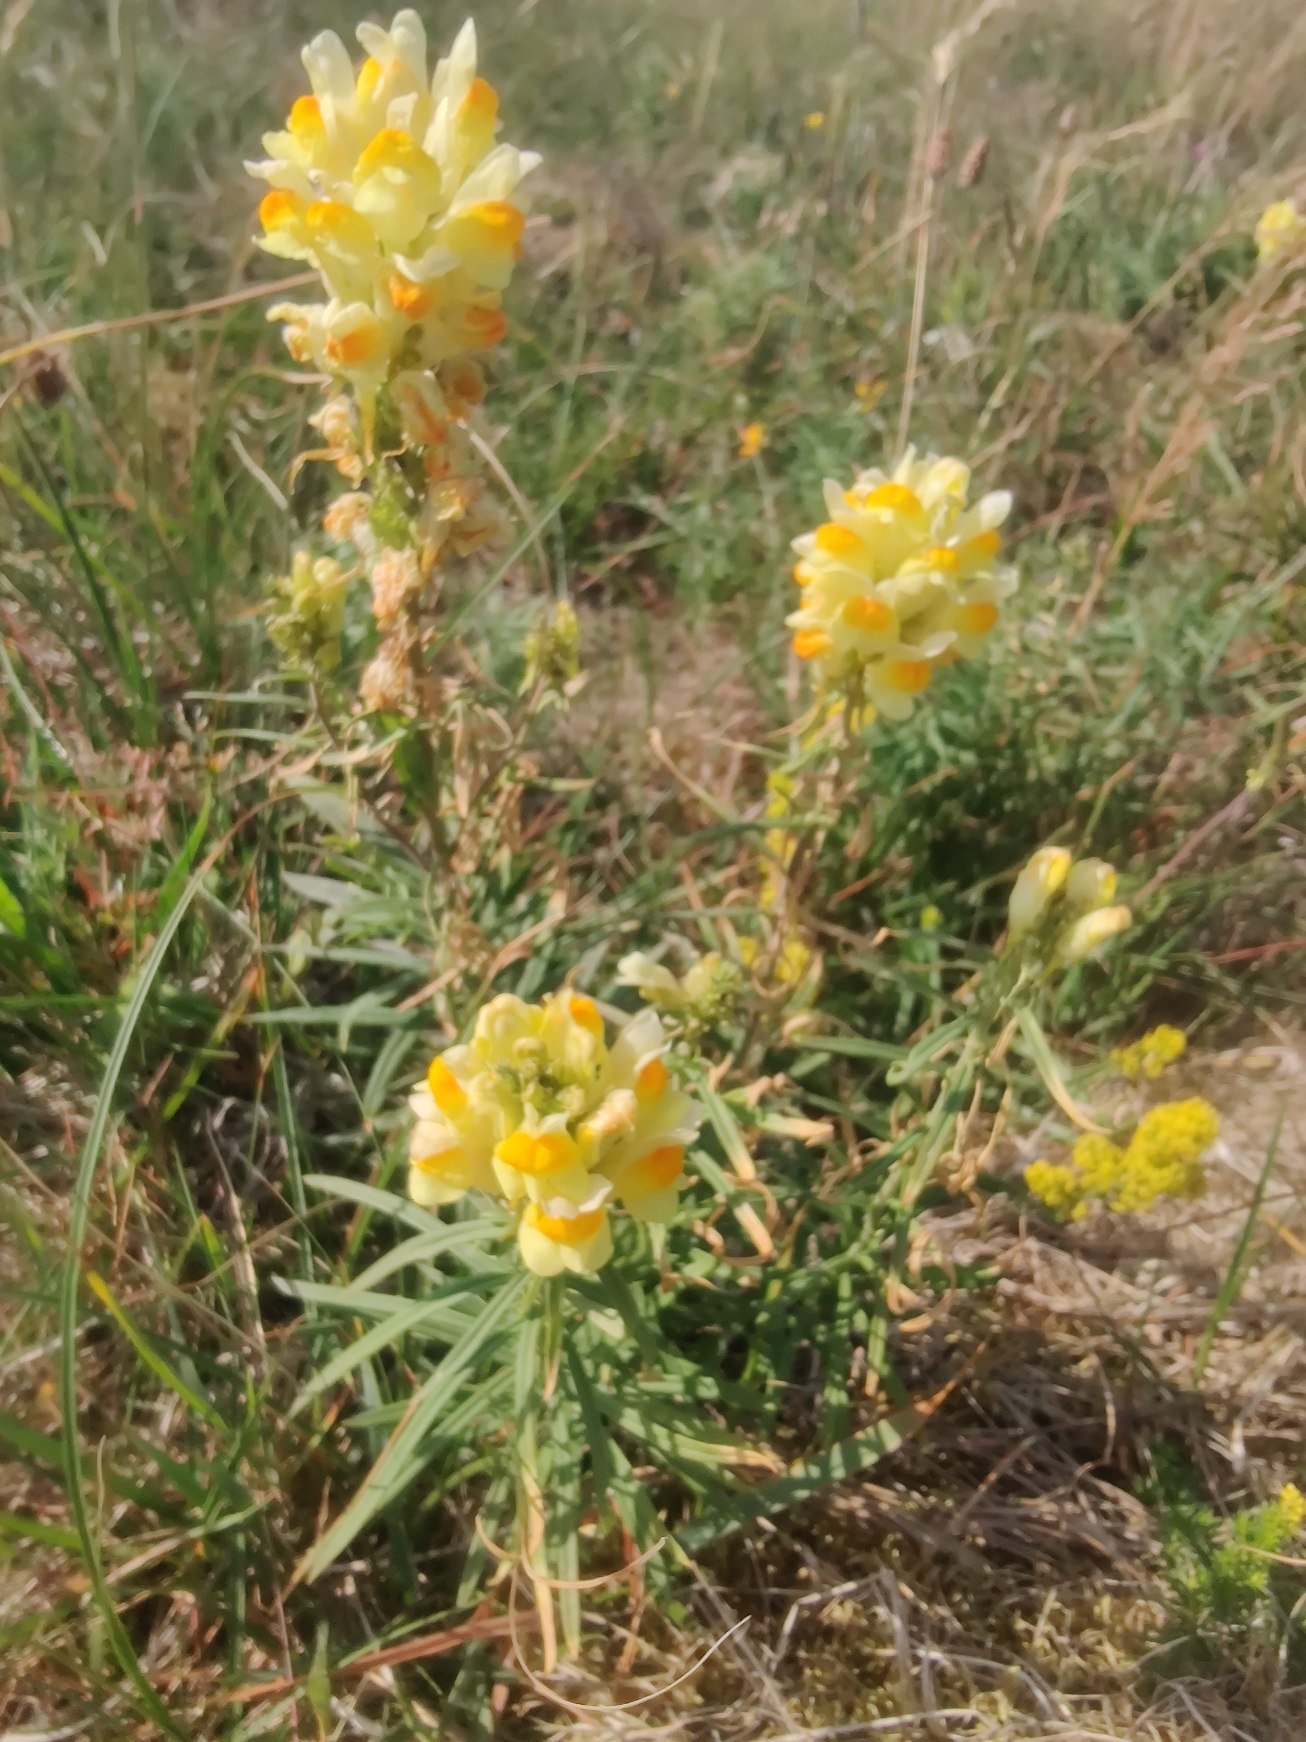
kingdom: Plantae
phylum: Tracheophyta
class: Magnoliopsida
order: Lamiales
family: Plantaginaceae
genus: Linaria
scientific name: Linaria vulgaris
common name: Almindelig torskemund
